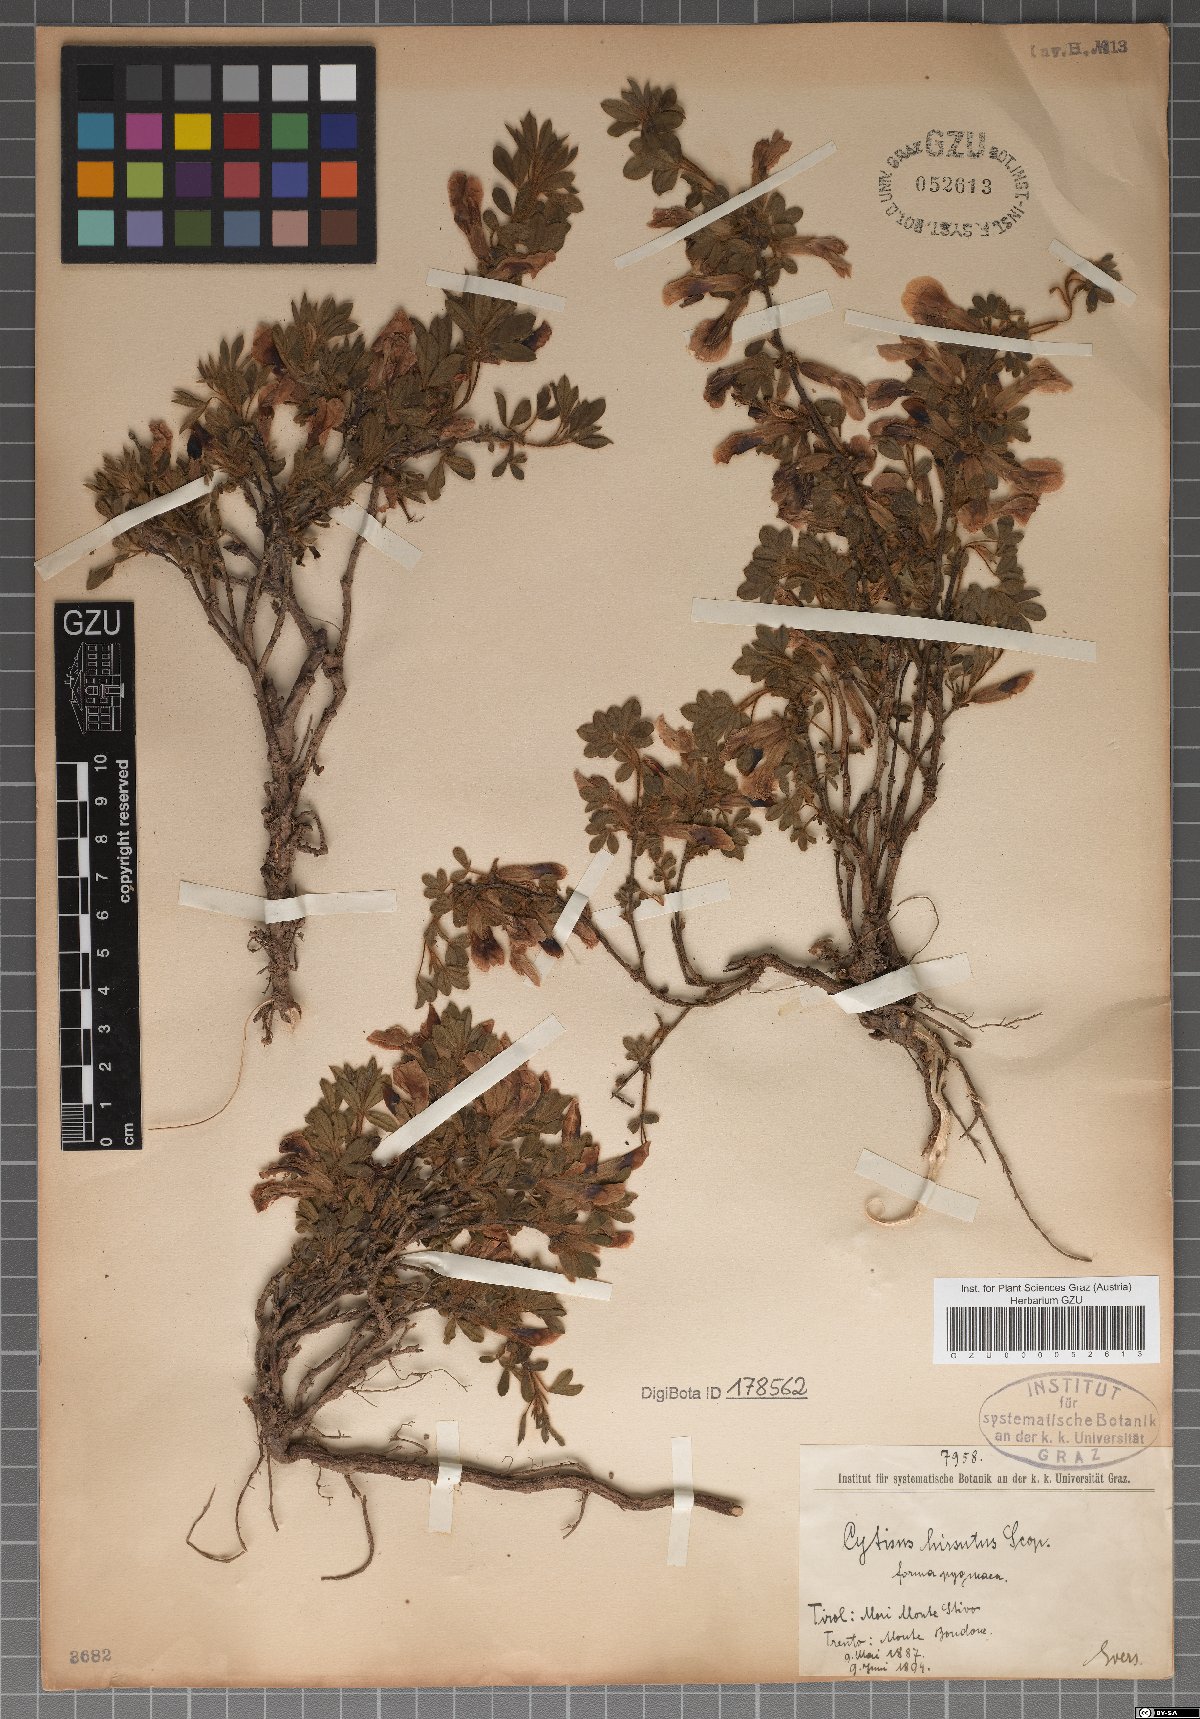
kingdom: Plantae
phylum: Tracheophyta
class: Magnoliopsida
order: Fabales
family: Fabaceae
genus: Chamaecytisus
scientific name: Chamaecytisus hirsutus
